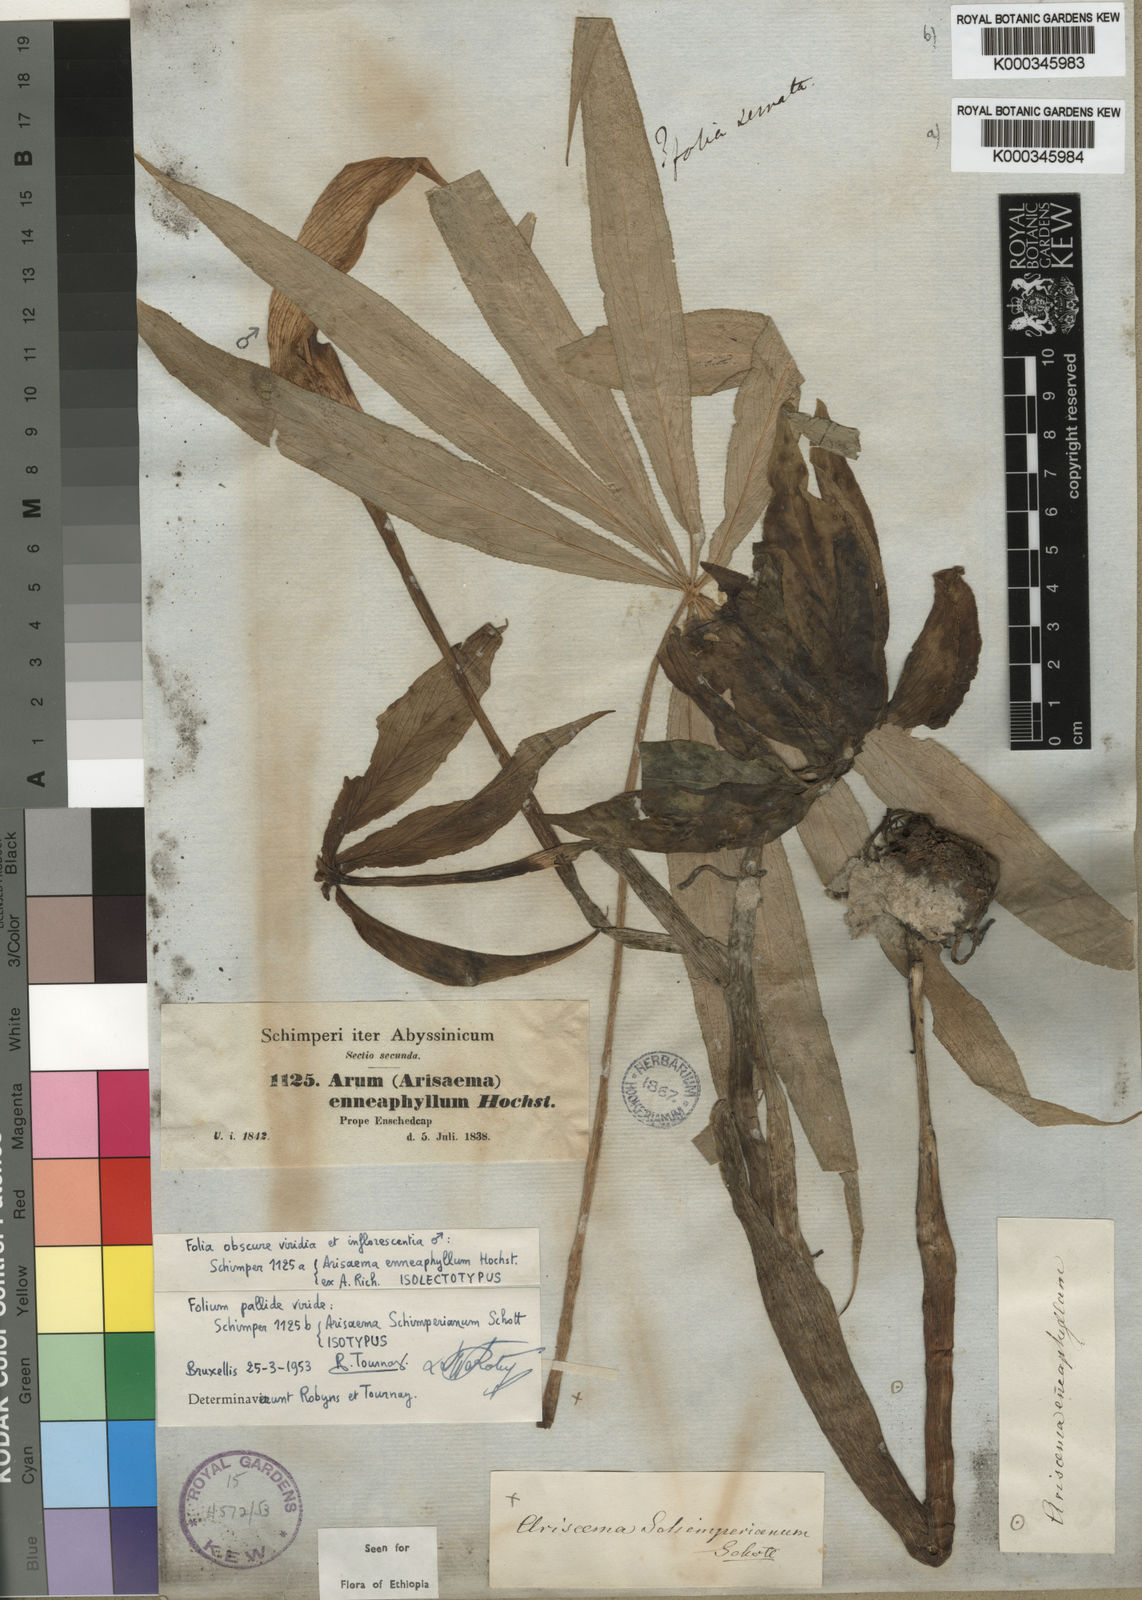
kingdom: Plantae
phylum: Tracheophyta
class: Liliopsida
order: Alismatales
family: Araceae
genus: Arisaema
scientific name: Arisaema schimperianum
